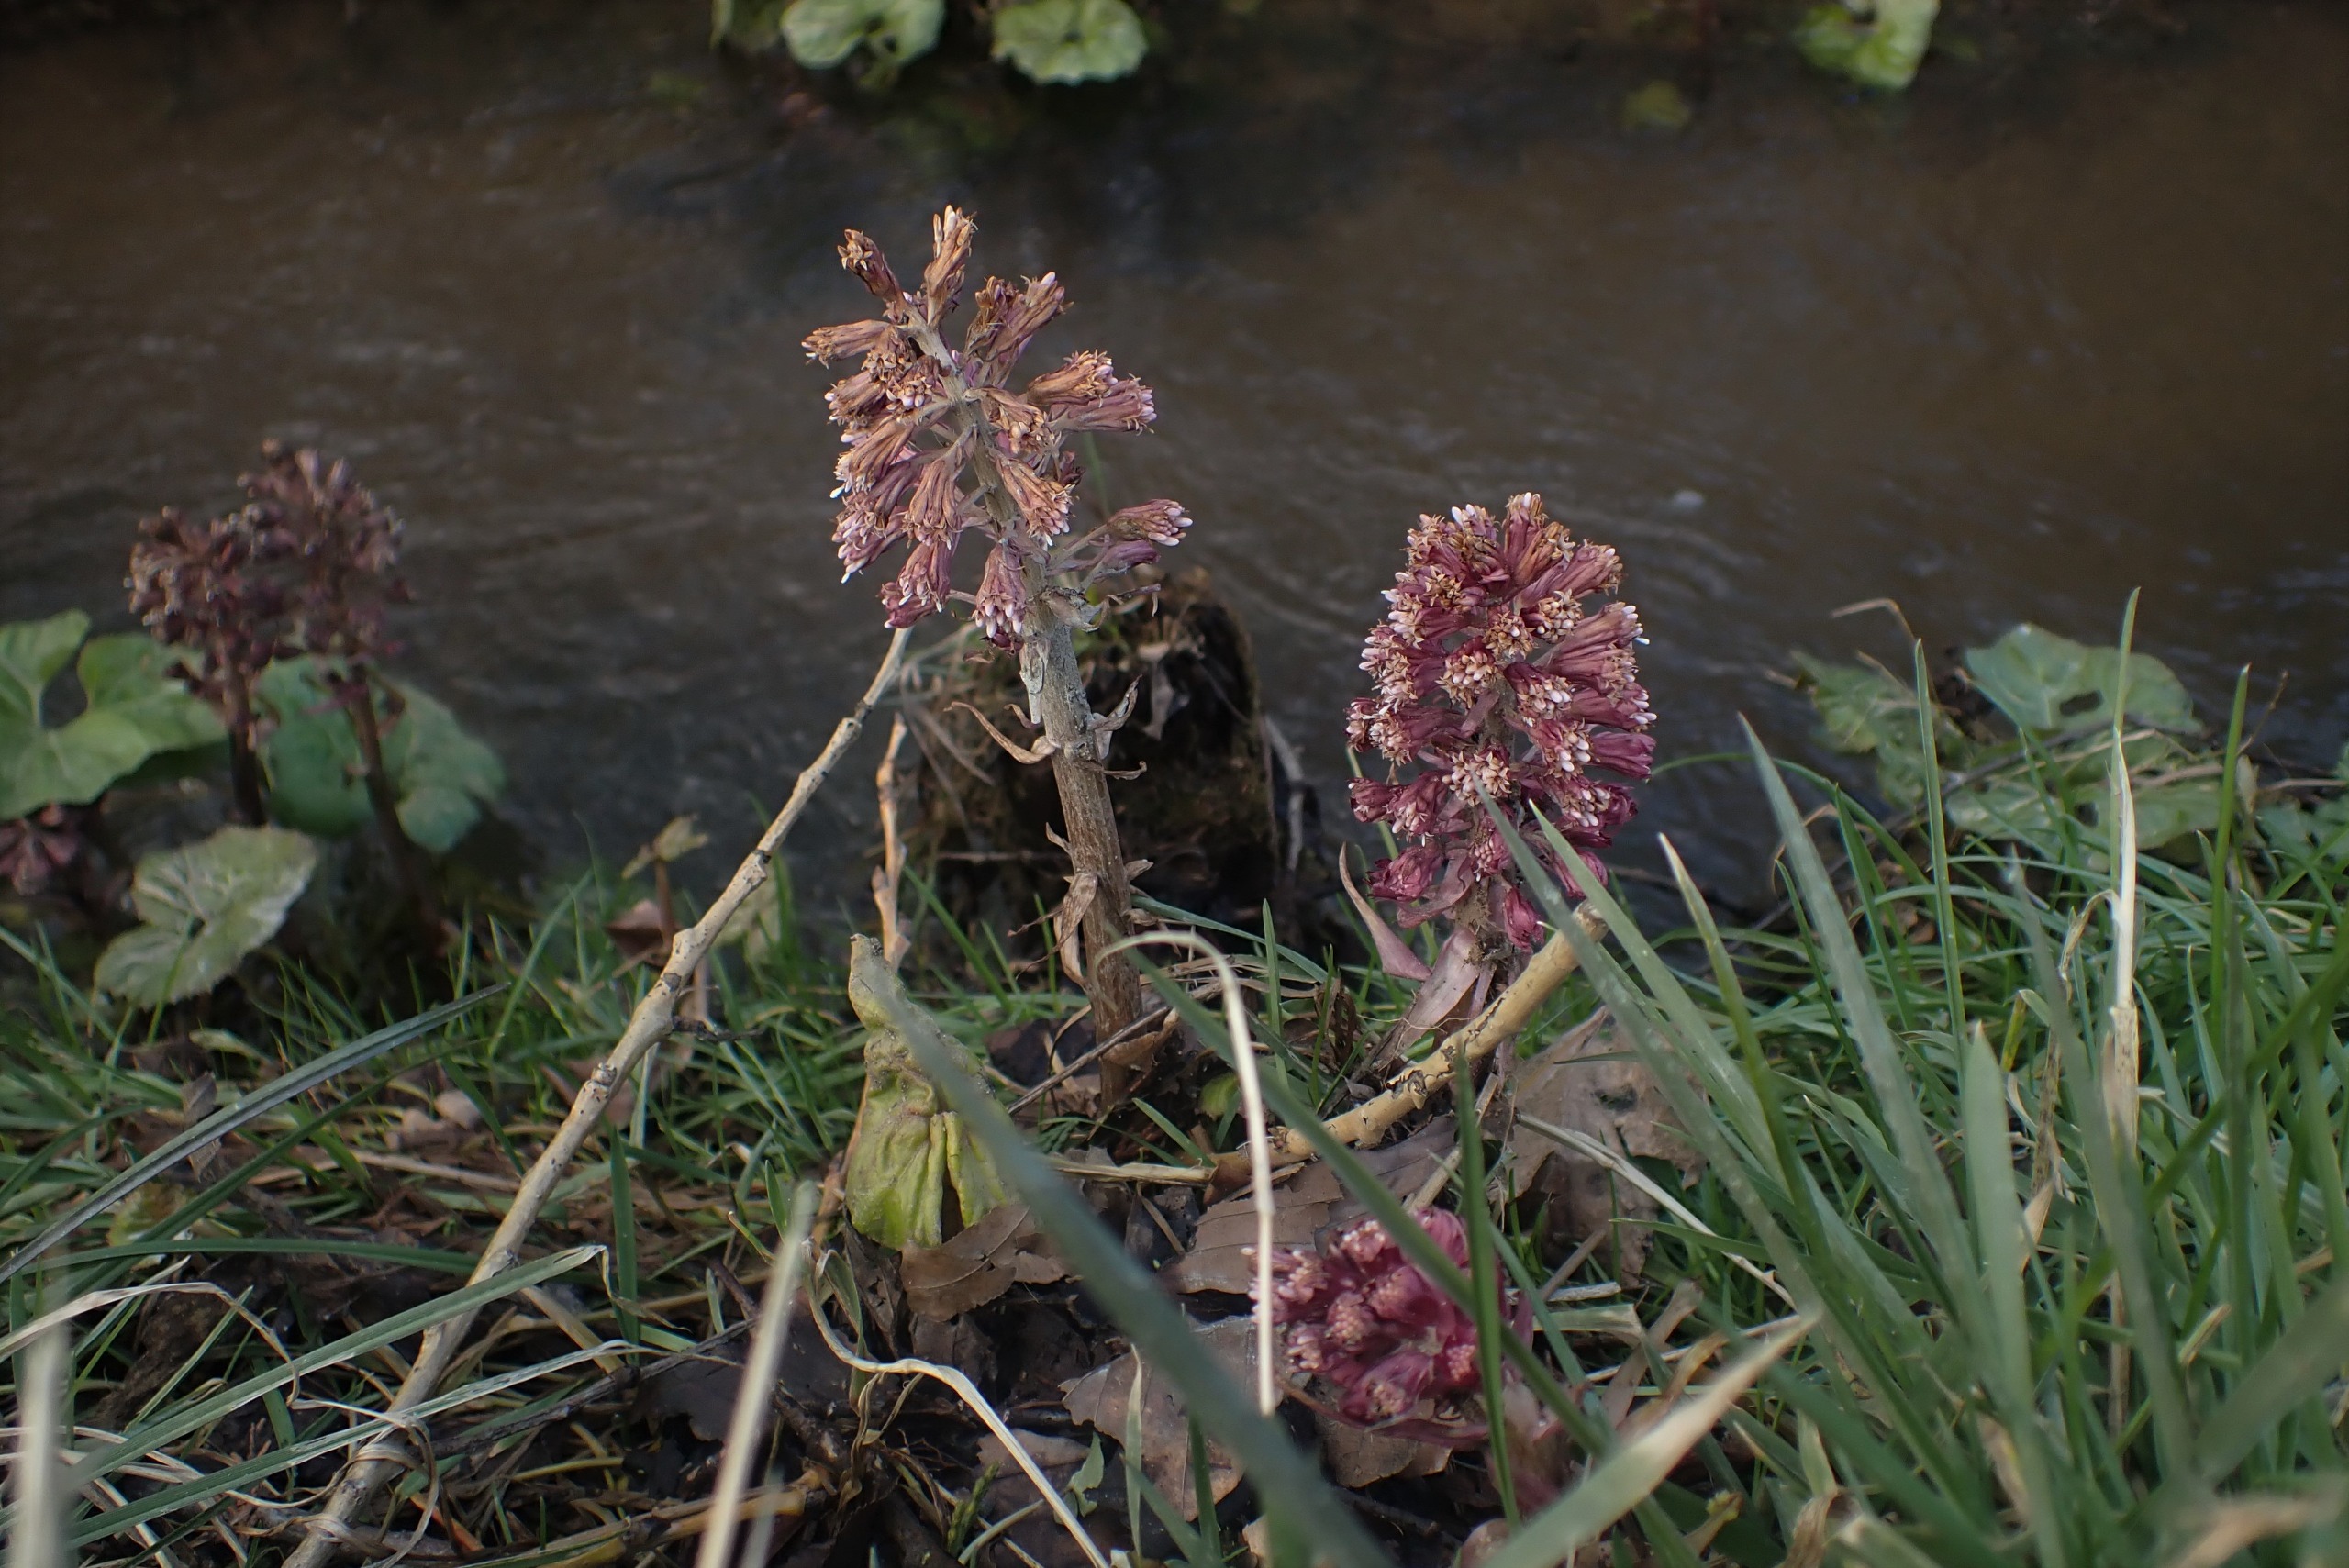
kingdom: Plantae
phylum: Tracheophyta
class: Magnoliopsida
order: Asterales
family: Asteraceae
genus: Petasites
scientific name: Petasites hybridus
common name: Rød hestehov
